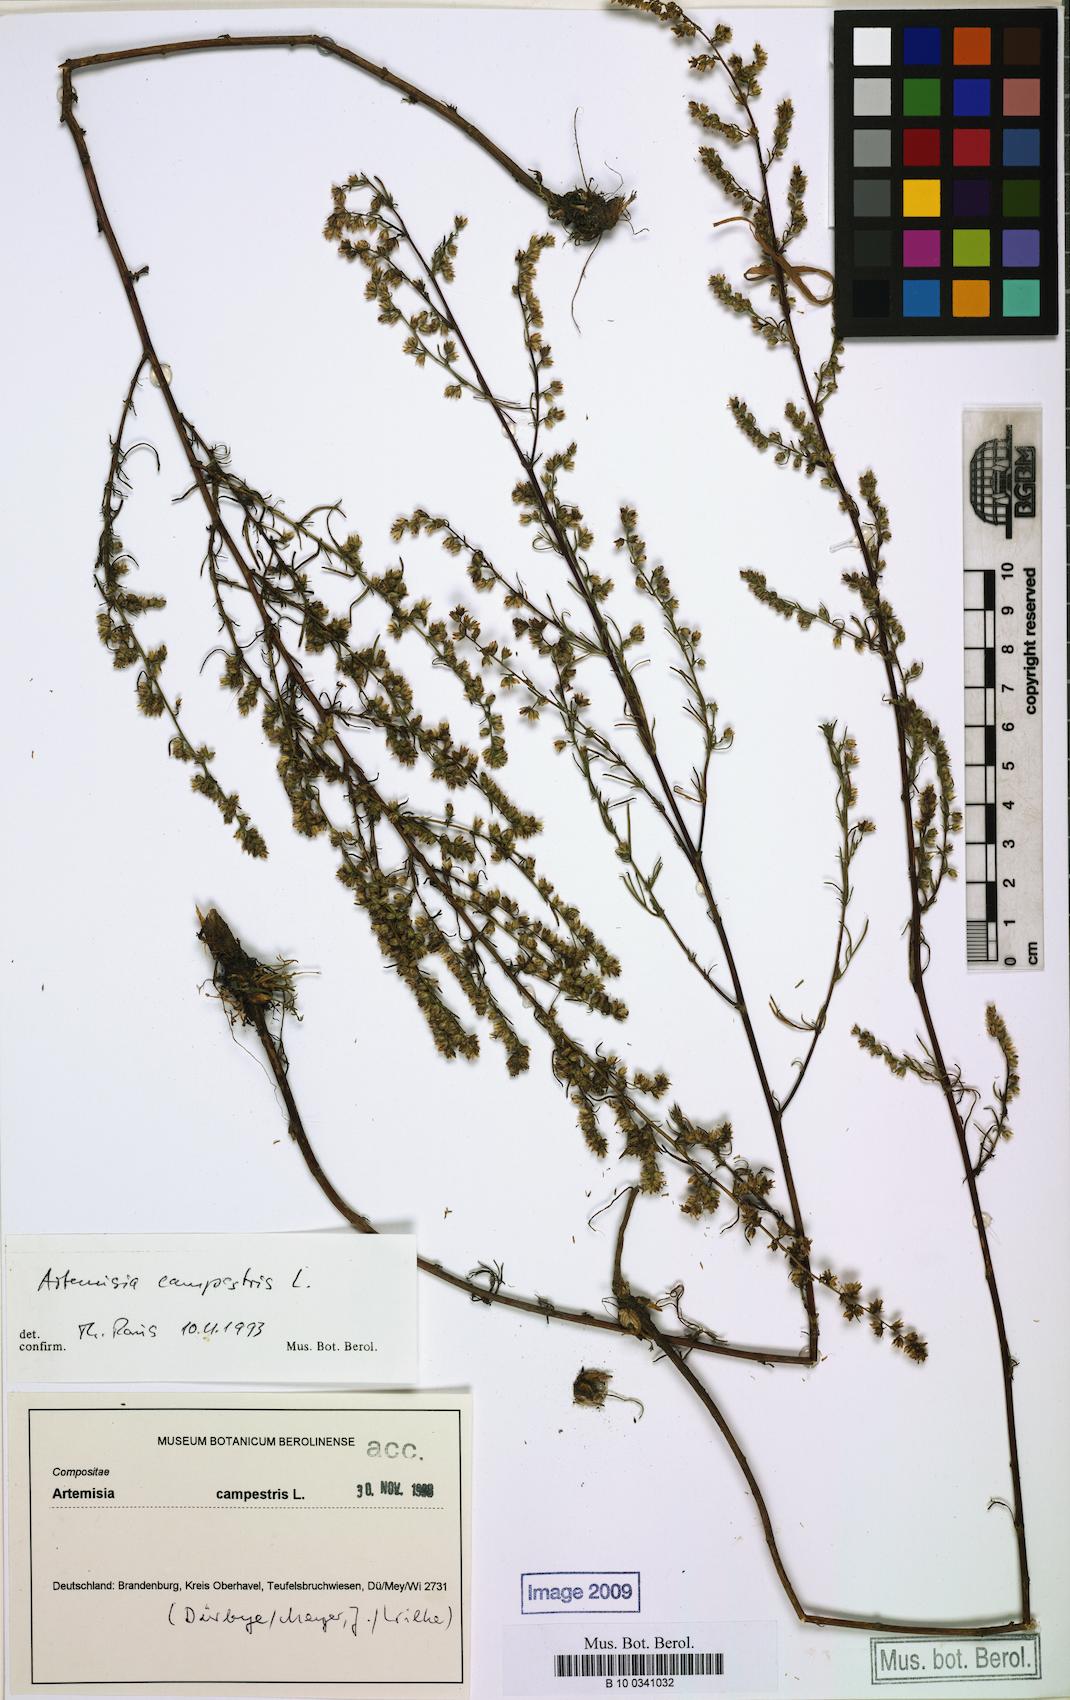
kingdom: Plantae
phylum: Tracheophyta
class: Magnoliopsida
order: Asterales
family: Asteraceae
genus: Artemisia
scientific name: Artemisia campestris
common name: Field wormwood
